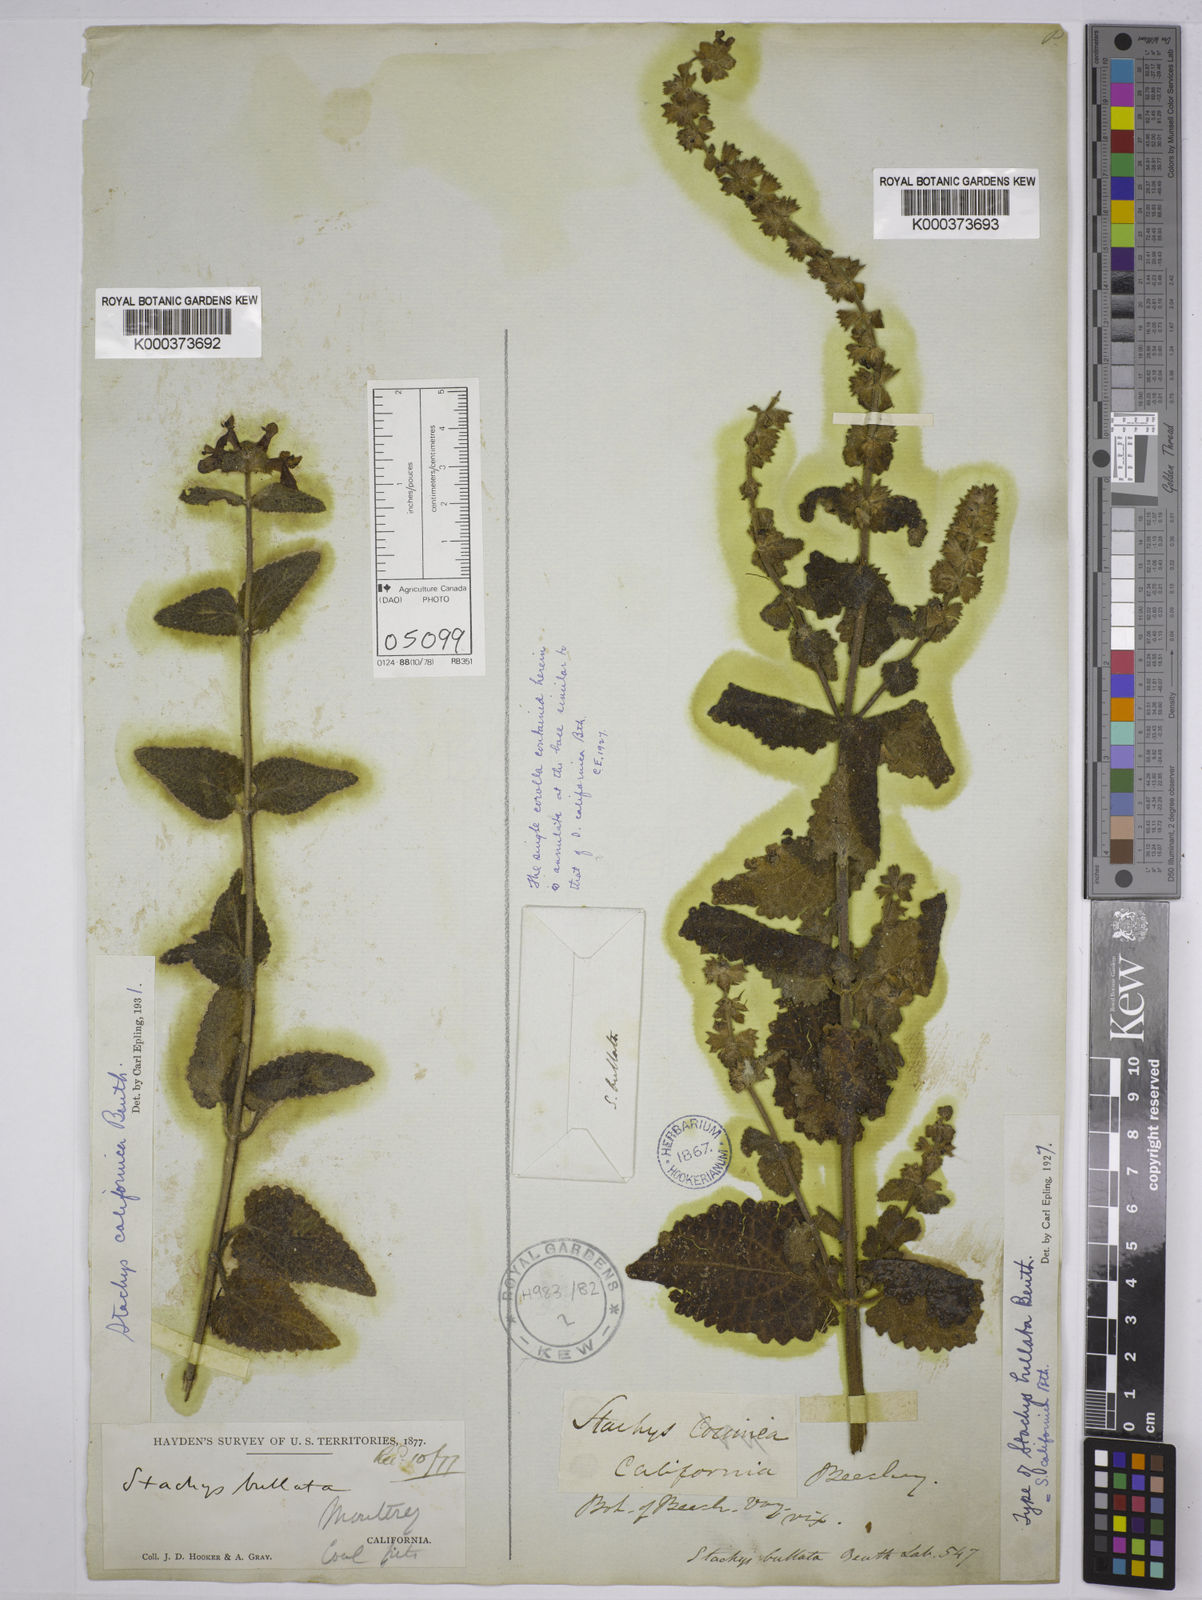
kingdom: Plantae
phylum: Tracheophyta
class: Magnoliopsida
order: Lamiales
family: Lamiaceae
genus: Stachys
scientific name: Stachys bullata
